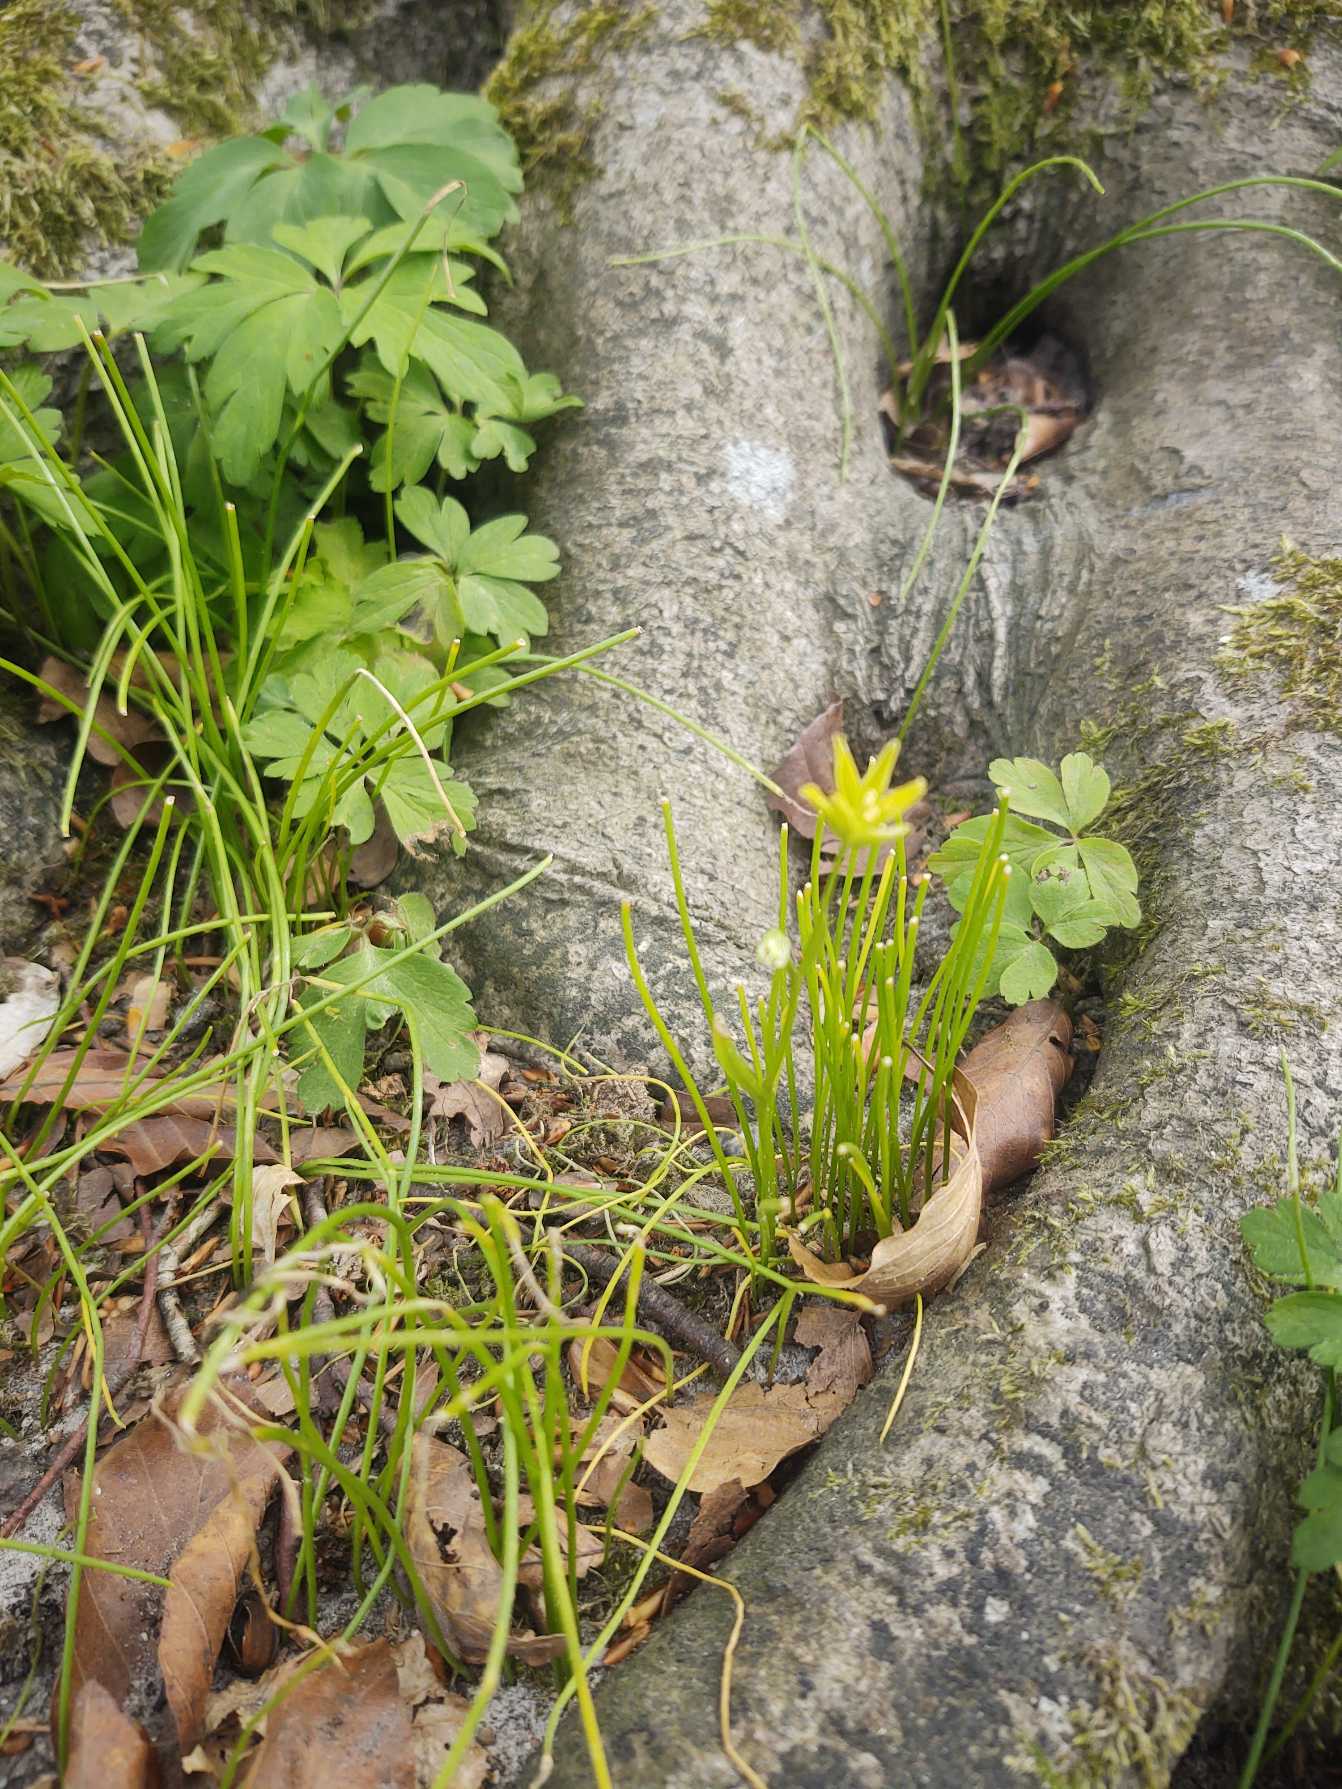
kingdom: Plantae
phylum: Tracheophyta
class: Liliopsida
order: Liliales
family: Liliaceae
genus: Gagea
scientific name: Gagea spathacea
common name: Hylster-guldstjerne
